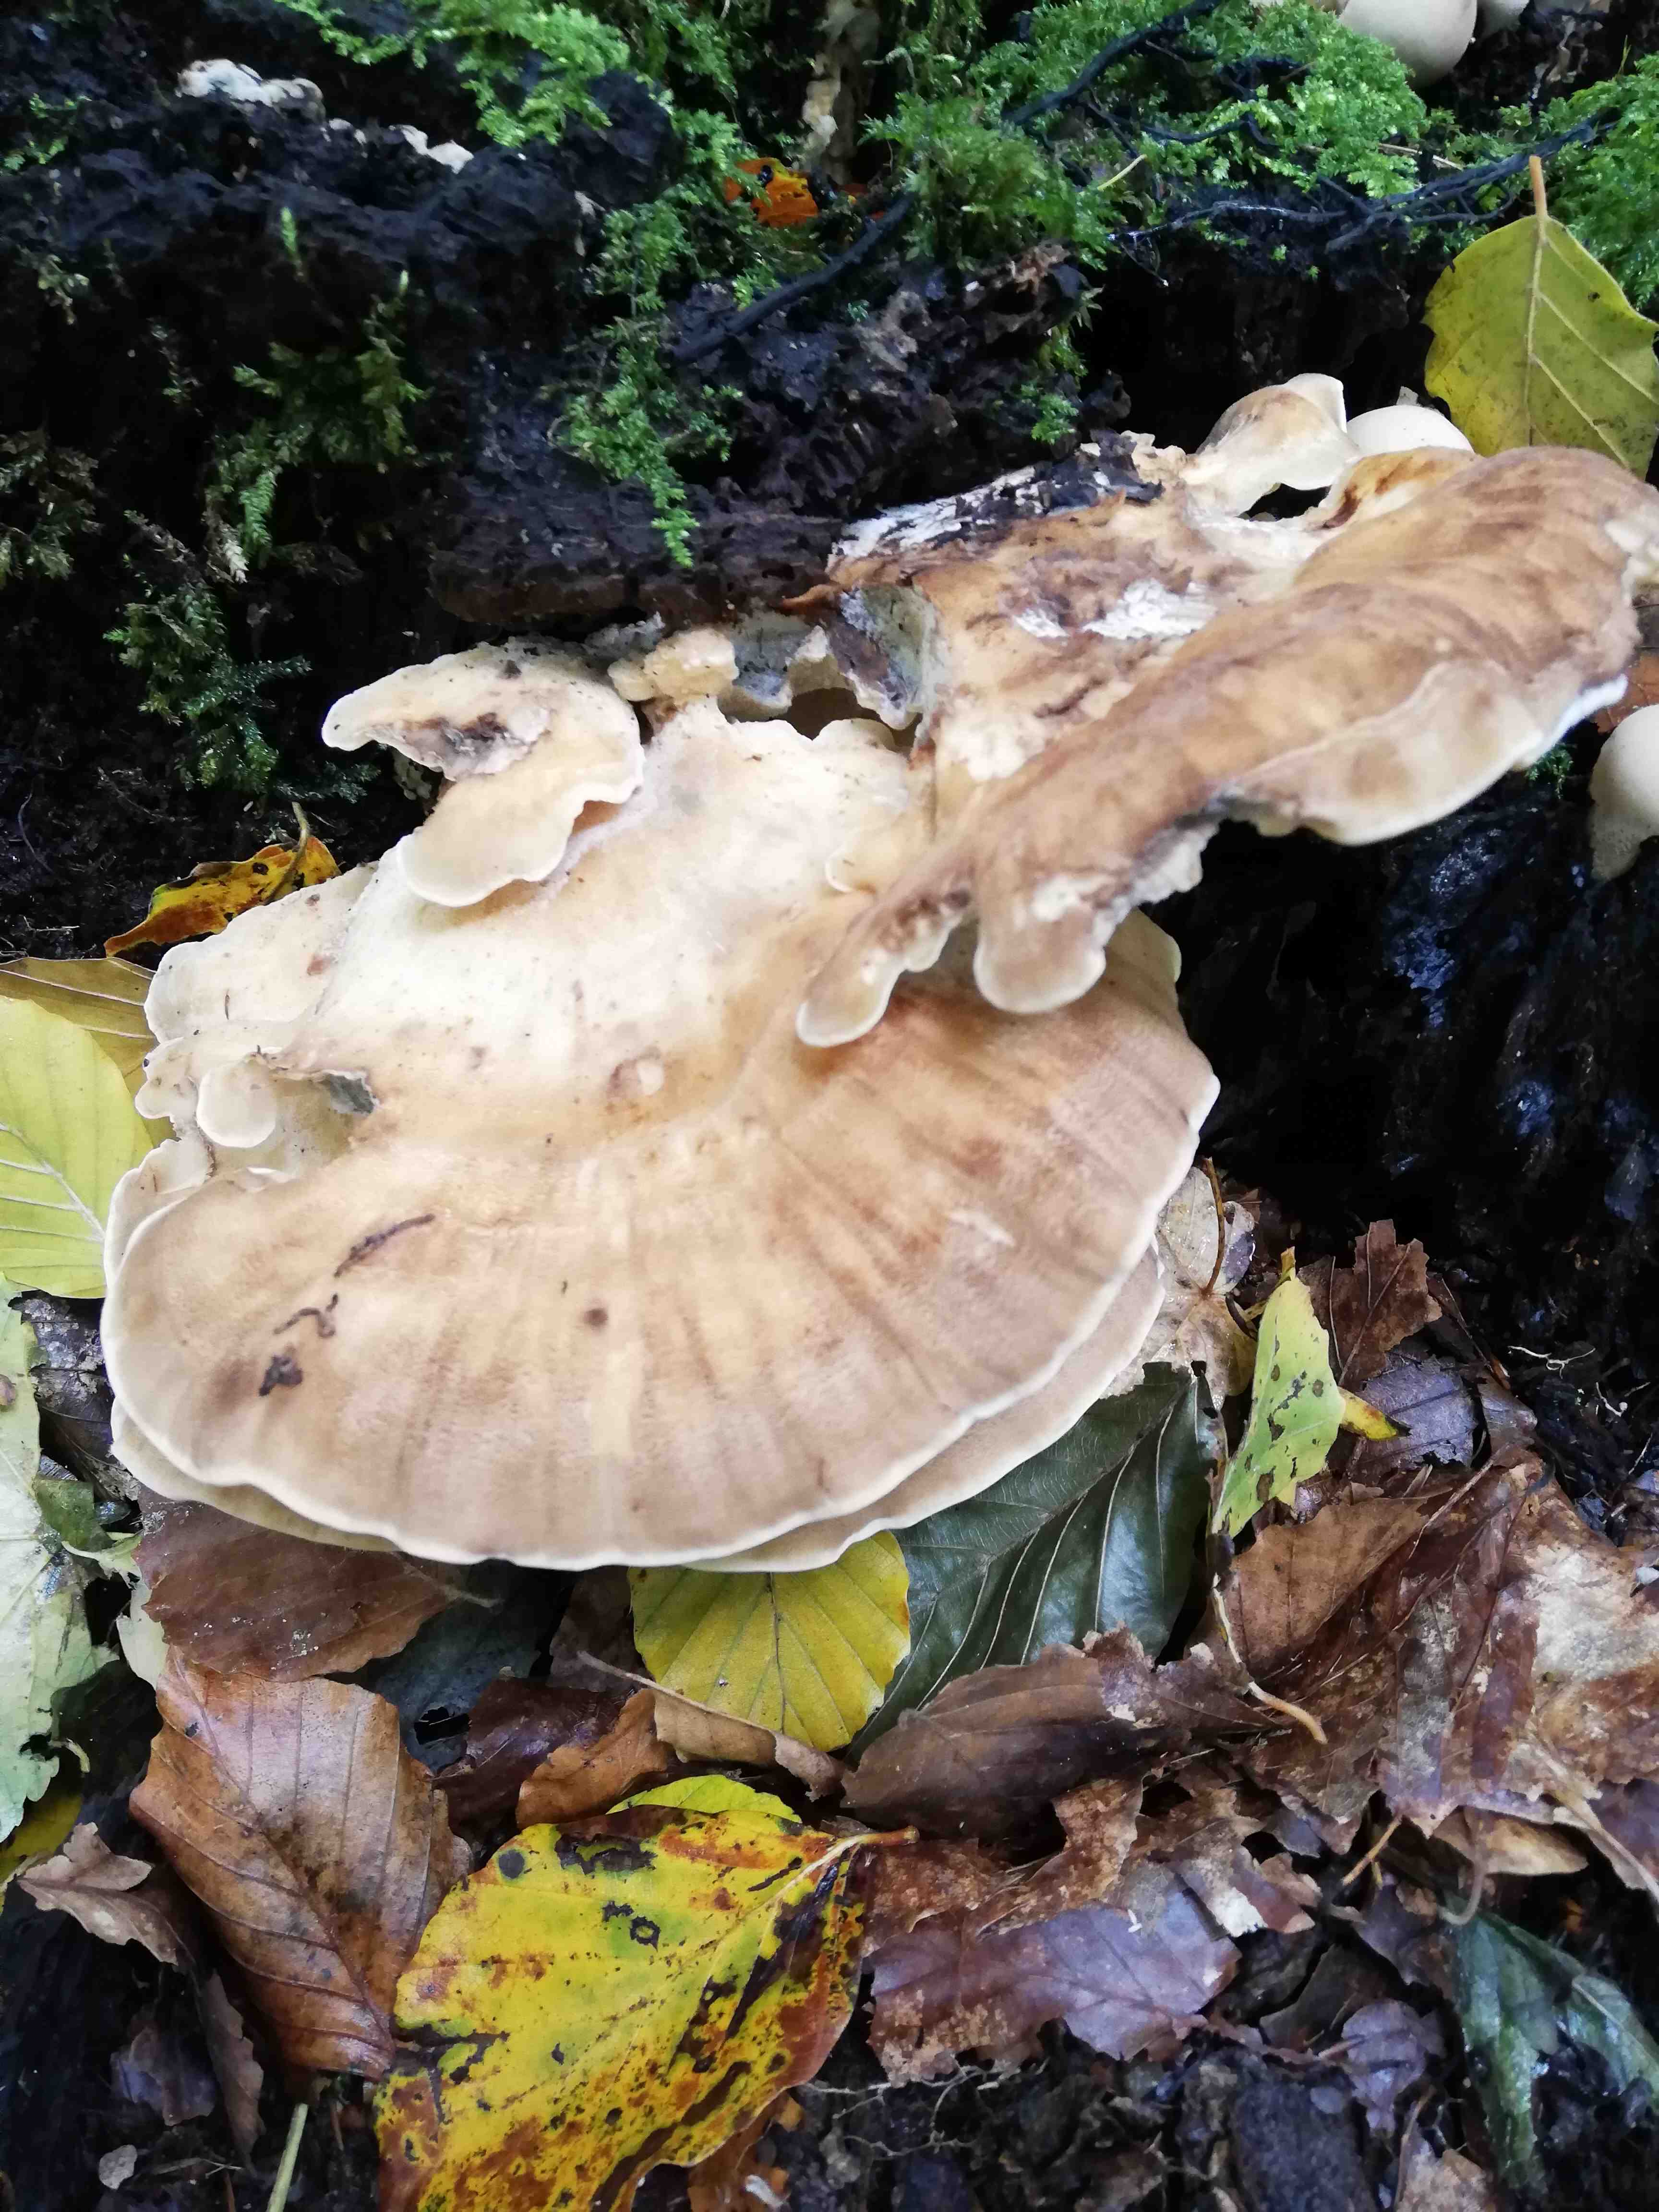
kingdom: Fungi
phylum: Basidiomycota
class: Agaricomycetes
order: Polyporales
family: Meripilaceae
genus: Meripilus
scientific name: Meripilus giganteus
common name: kæmpeporesvamp
